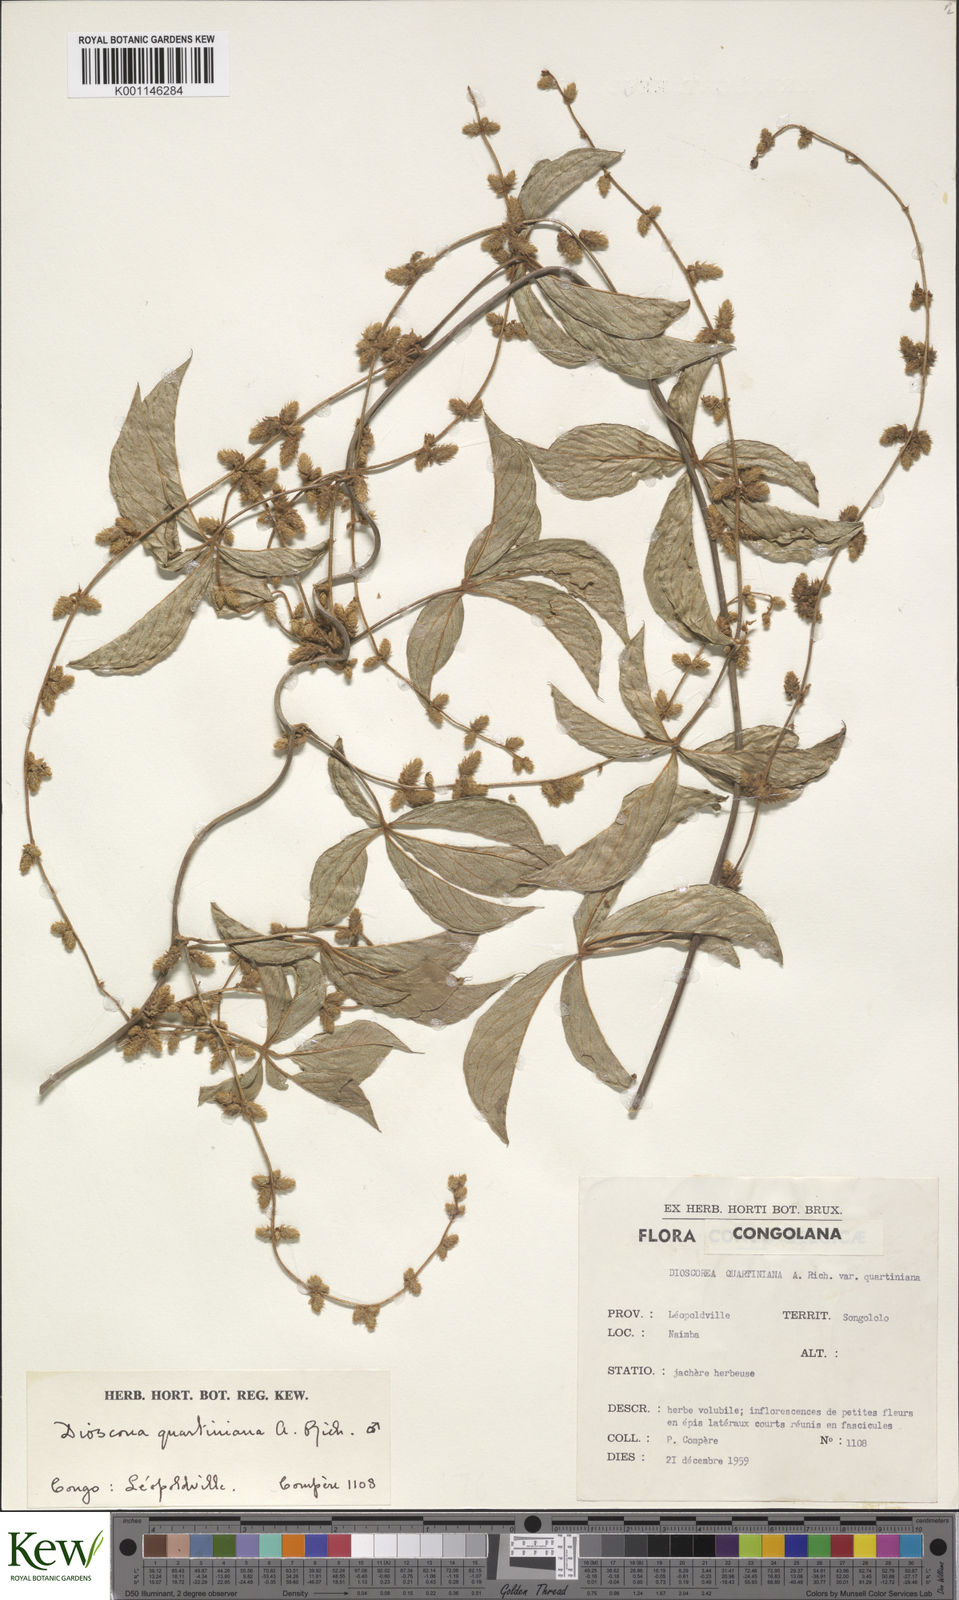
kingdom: Plantae
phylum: Tracheophyta
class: Liliopsida
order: Dioscoreales
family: Dioscoreaceae
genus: Dioscorea
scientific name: Dioscorea quartiniana
